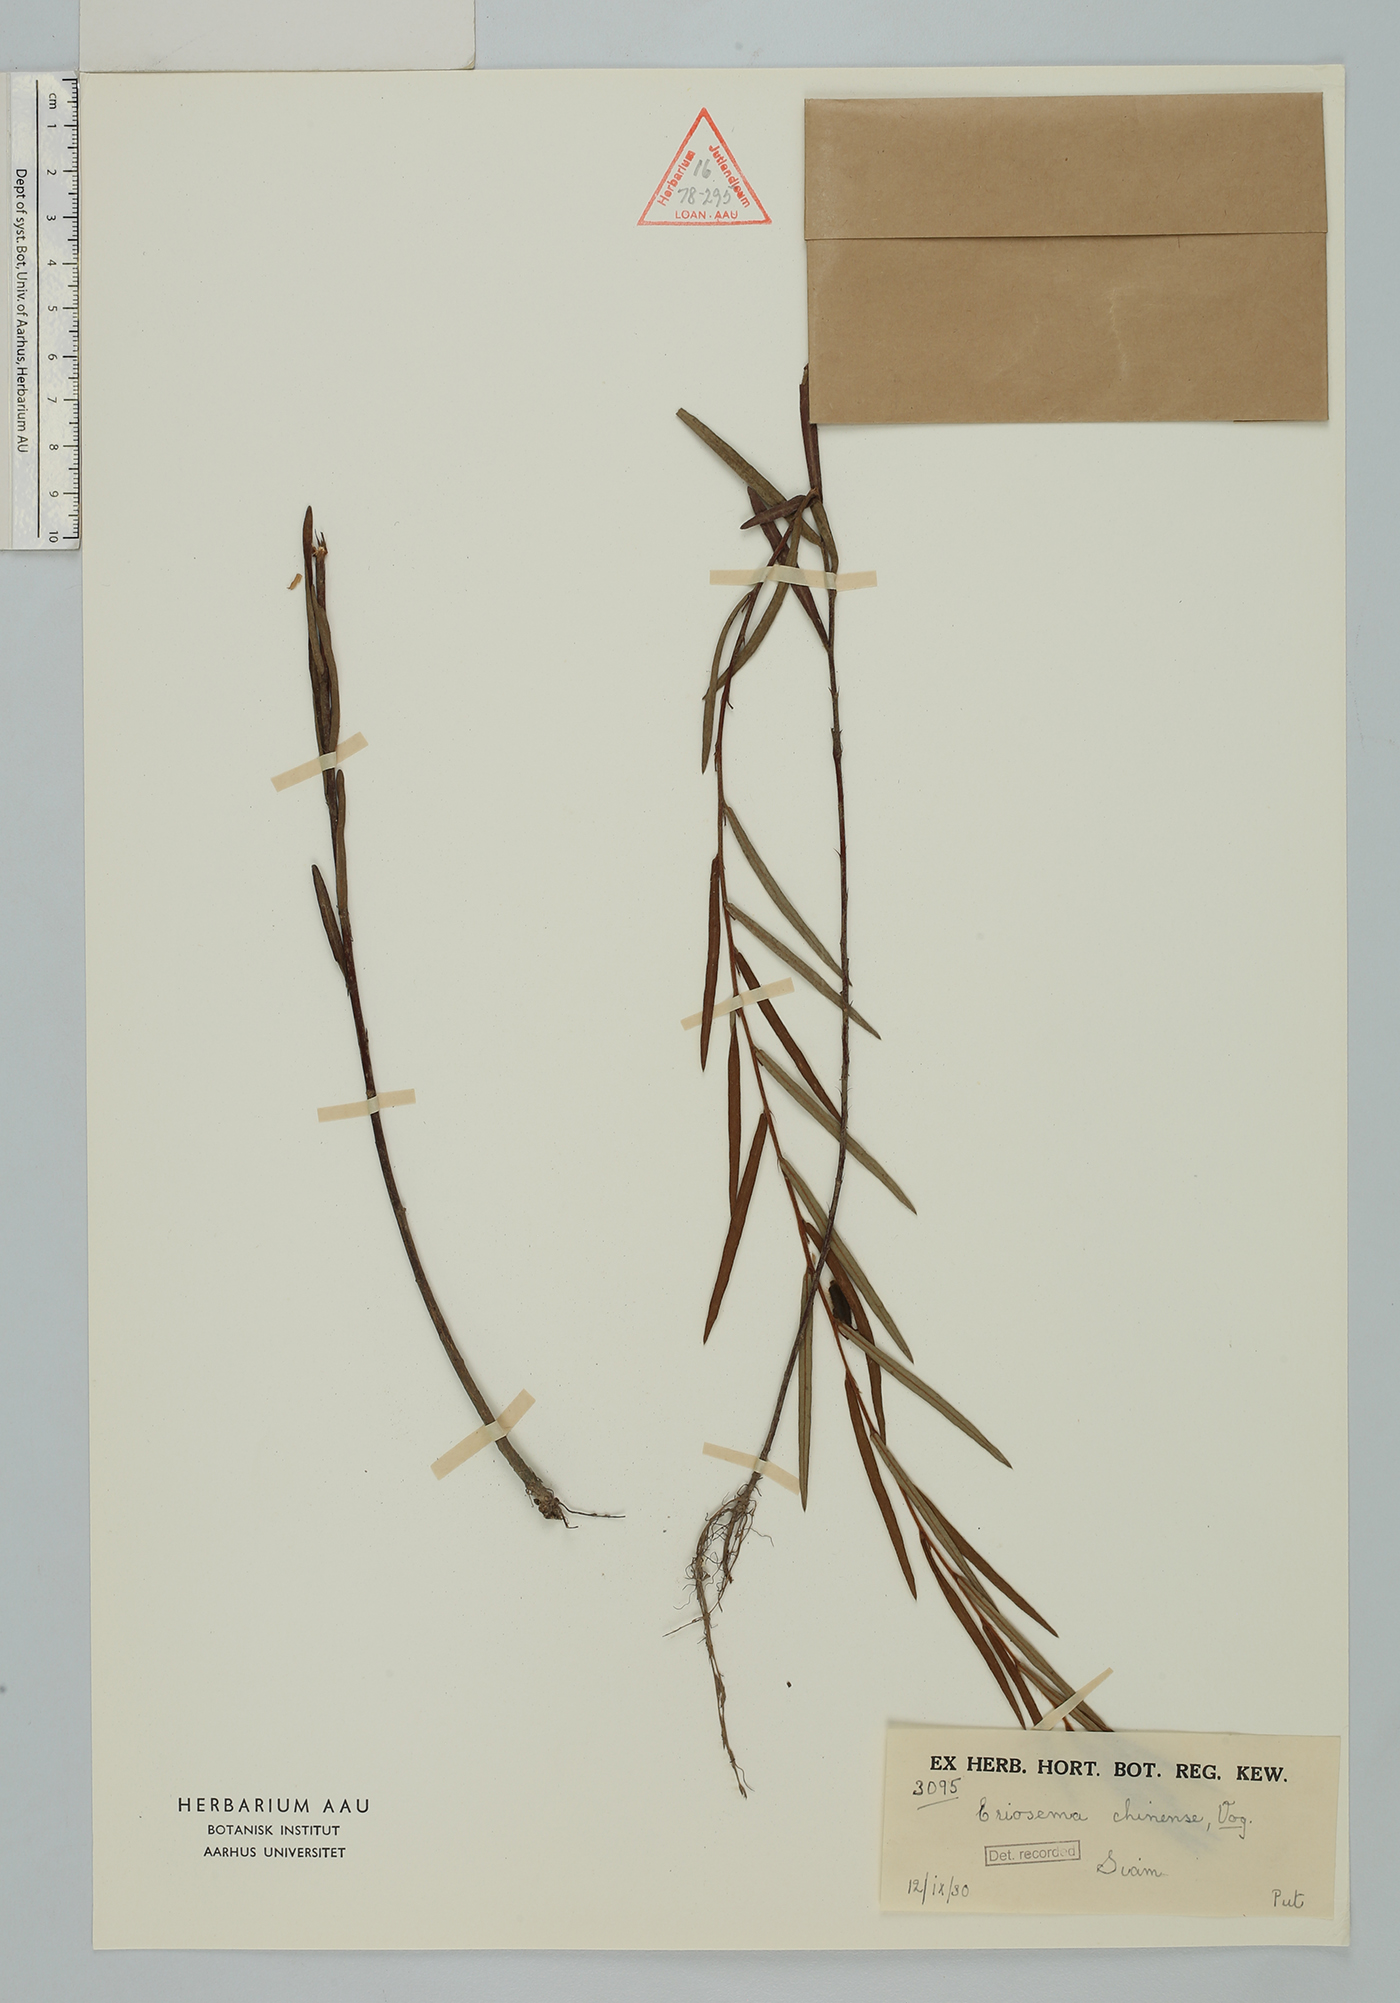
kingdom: Plantae
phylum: Tracheophyta
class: Magnoliopsida
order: Fabales
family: Fabaceae
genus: Eriosema
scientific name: Eriosema chinense
